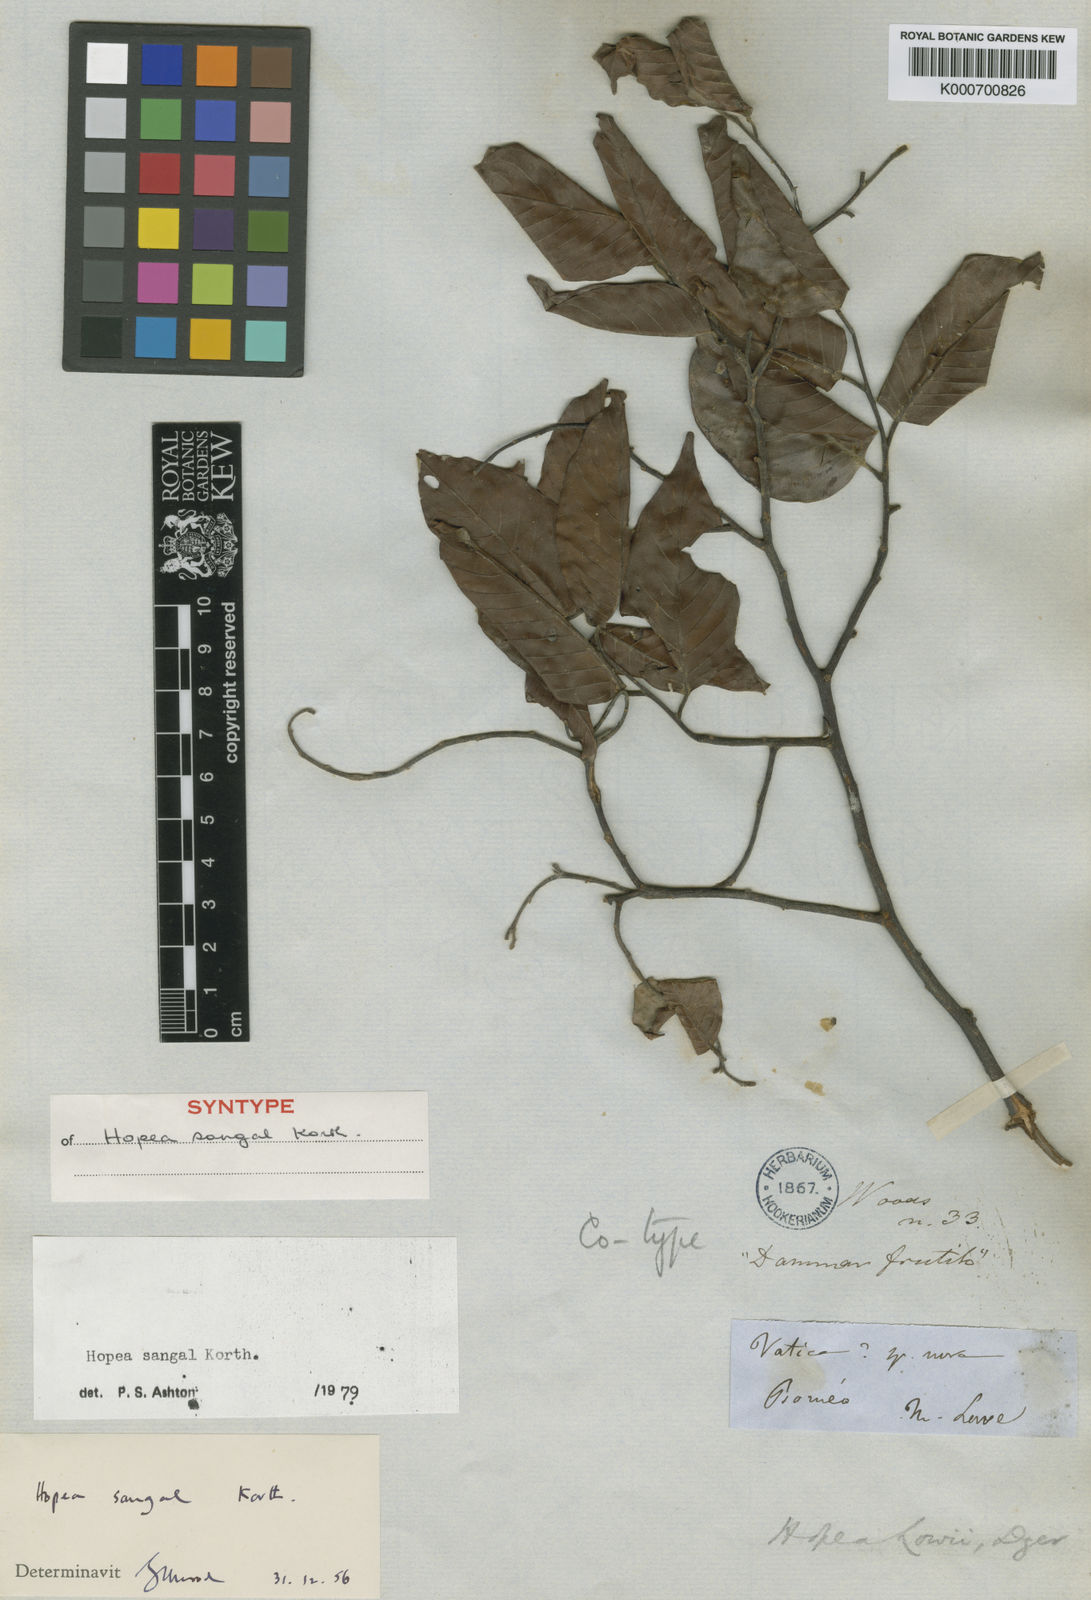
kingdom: Plantae
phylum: Tracheophyta
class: Magnoliopsida
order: Malvales
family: Dipterocarpaceae
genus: Hopea
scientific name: Hopea sangal
